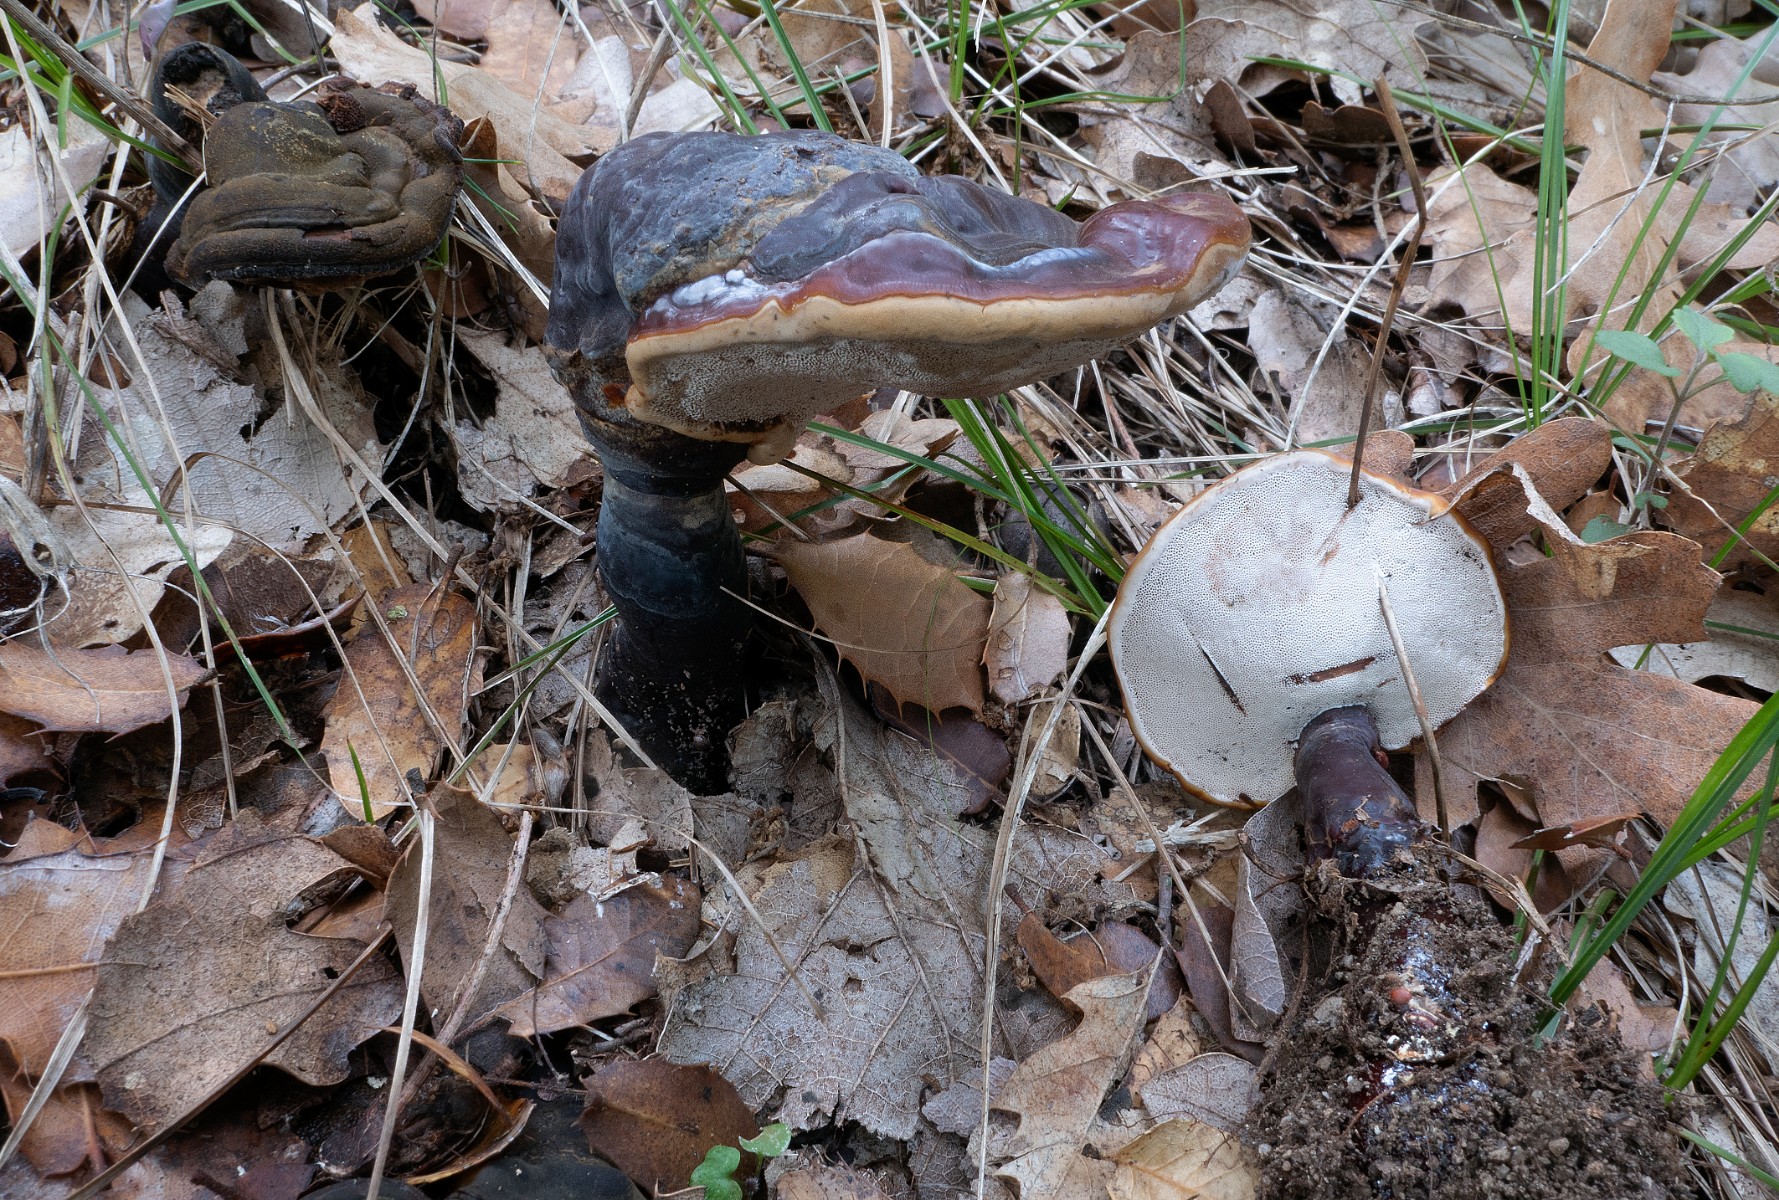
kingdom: Fungi
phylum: Basidiomycota
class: Agaricomycetes
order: Polyporales
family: Polyporaceae
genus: Ganoderma
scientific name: Ganoderma lucidum
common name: skinnende lakporesvamp
